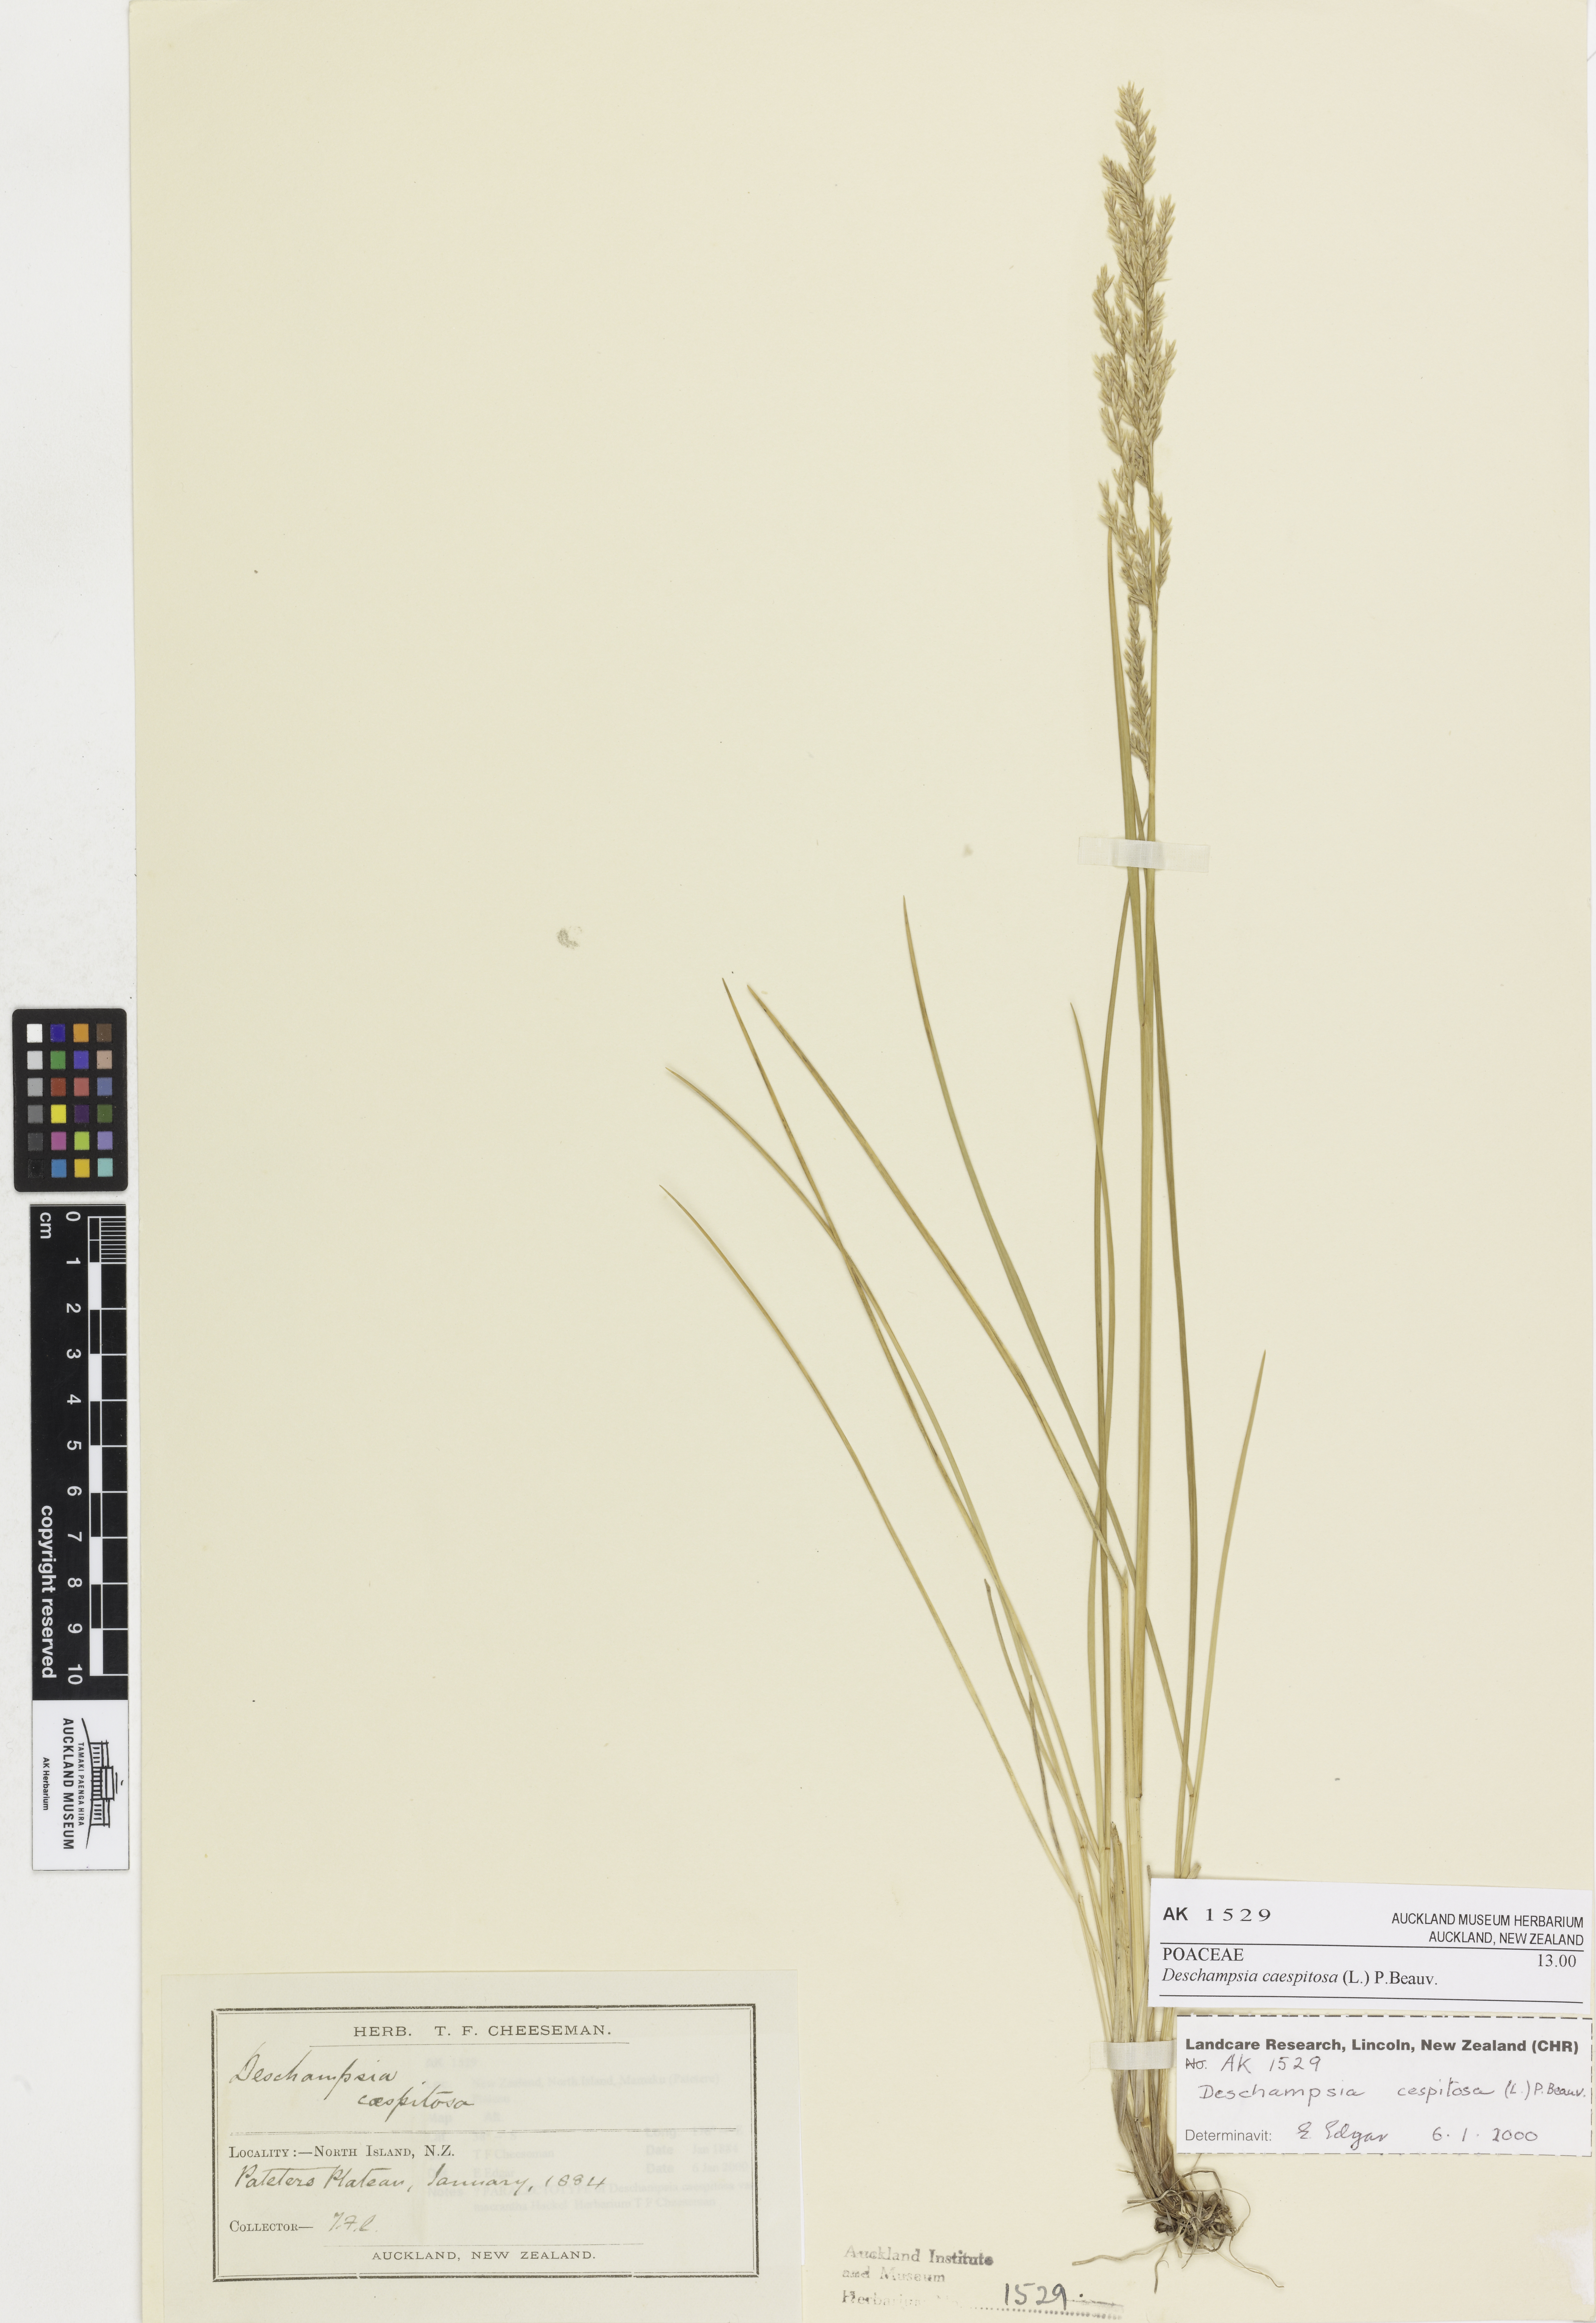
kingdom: Plantae
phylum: Tracheophyta
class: Liliopsida
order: Poales
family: Poaceae
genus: Deschampsia
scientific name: Deschampsia cespitosa
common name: Tufted hair-grass
